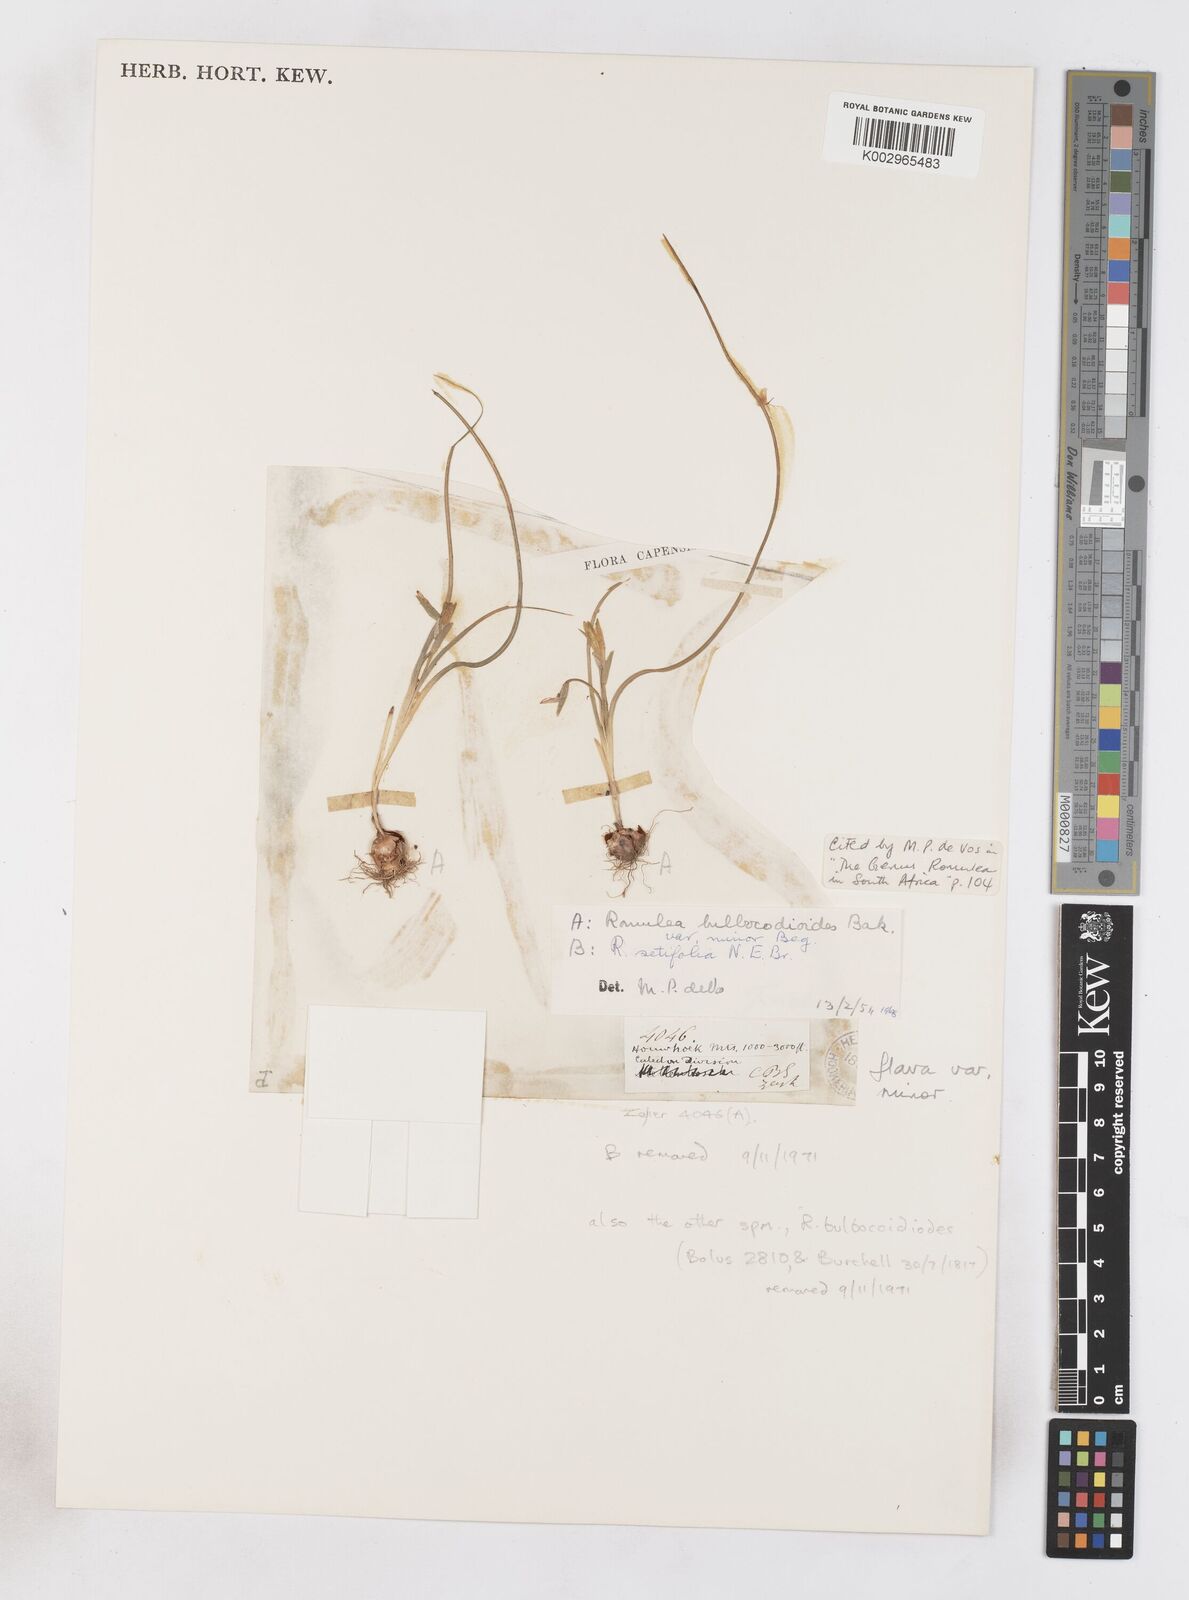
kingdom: Plantae
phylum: Tracheophyta
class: Liliopsida
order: Asparagales
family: Iridaceae
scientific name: Iridaceae
